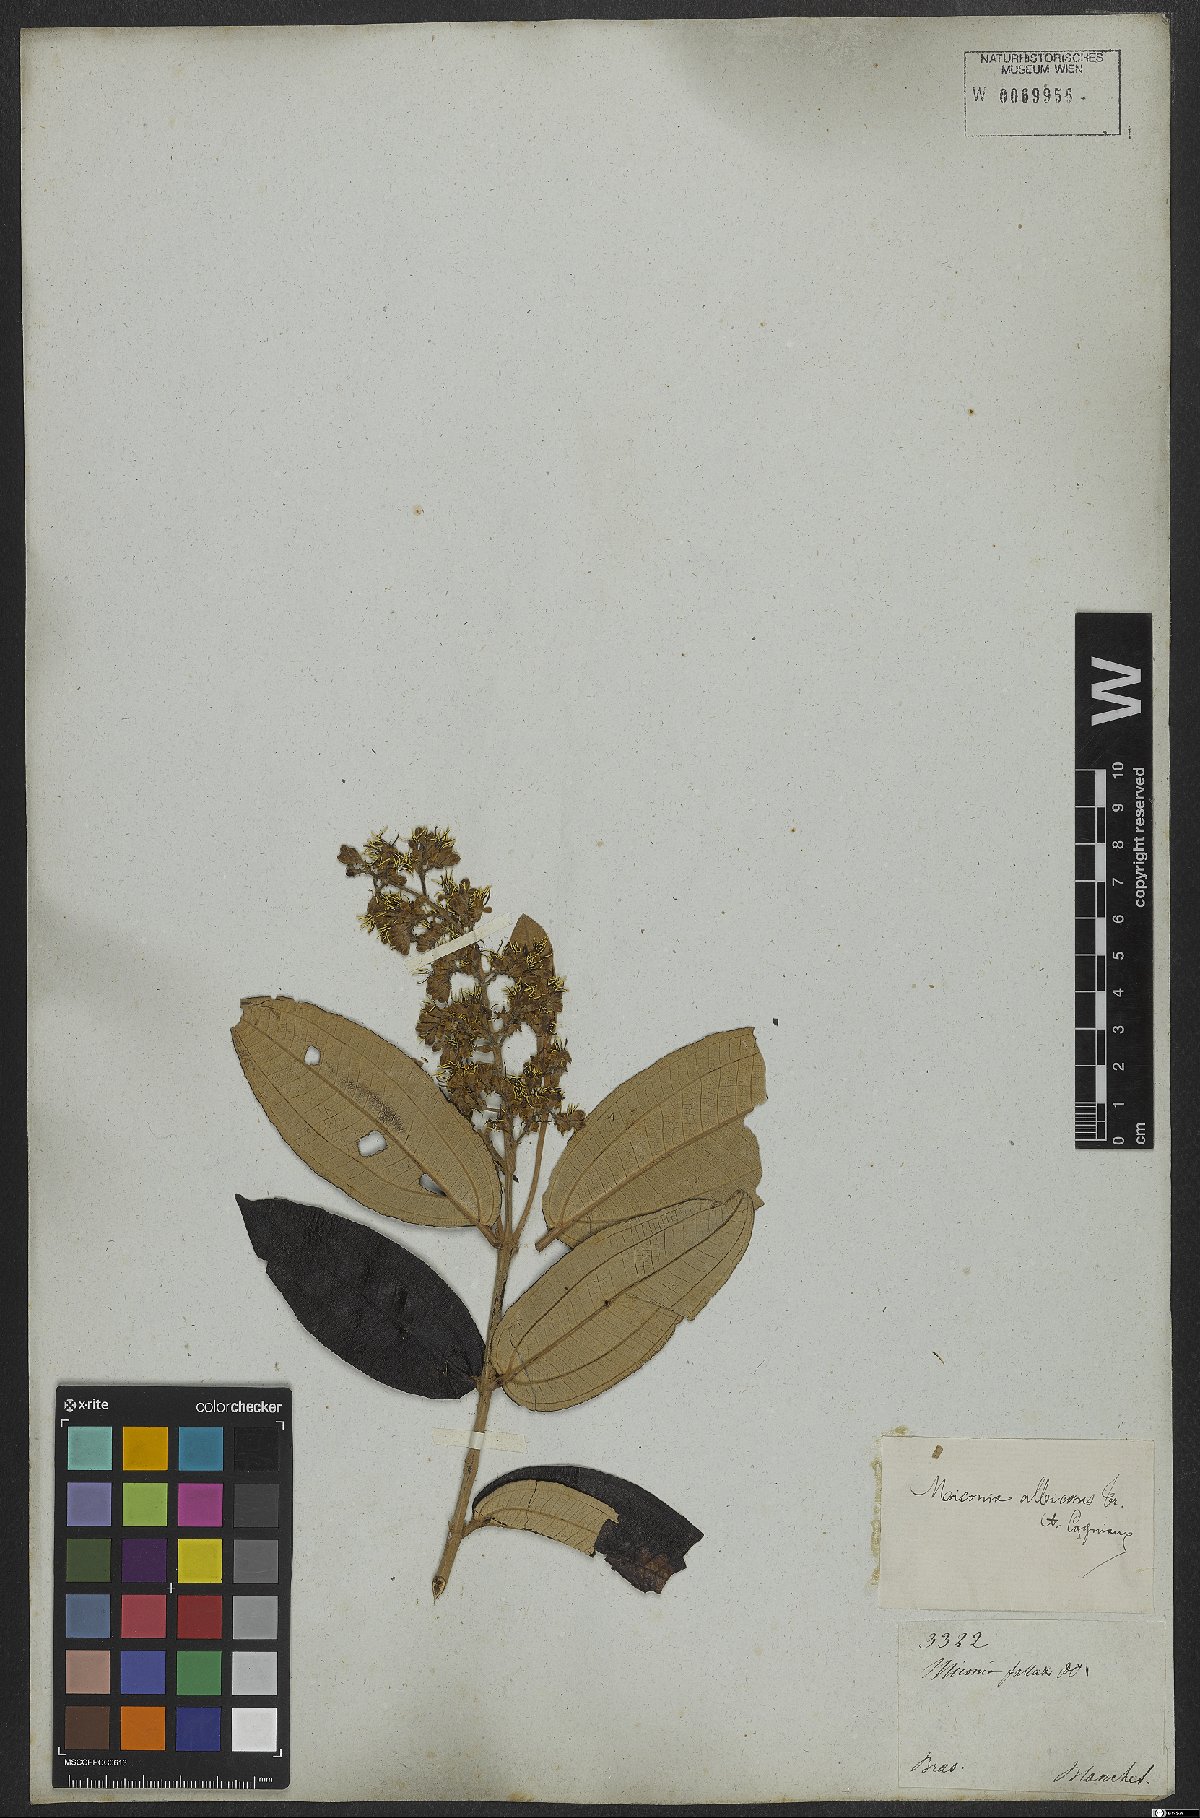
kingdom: Plantae
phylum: Tracheophyta
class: Magnoliopsida
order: Myrtales
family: Melastomataceae
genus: Miconia
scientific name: Miconia fallax
